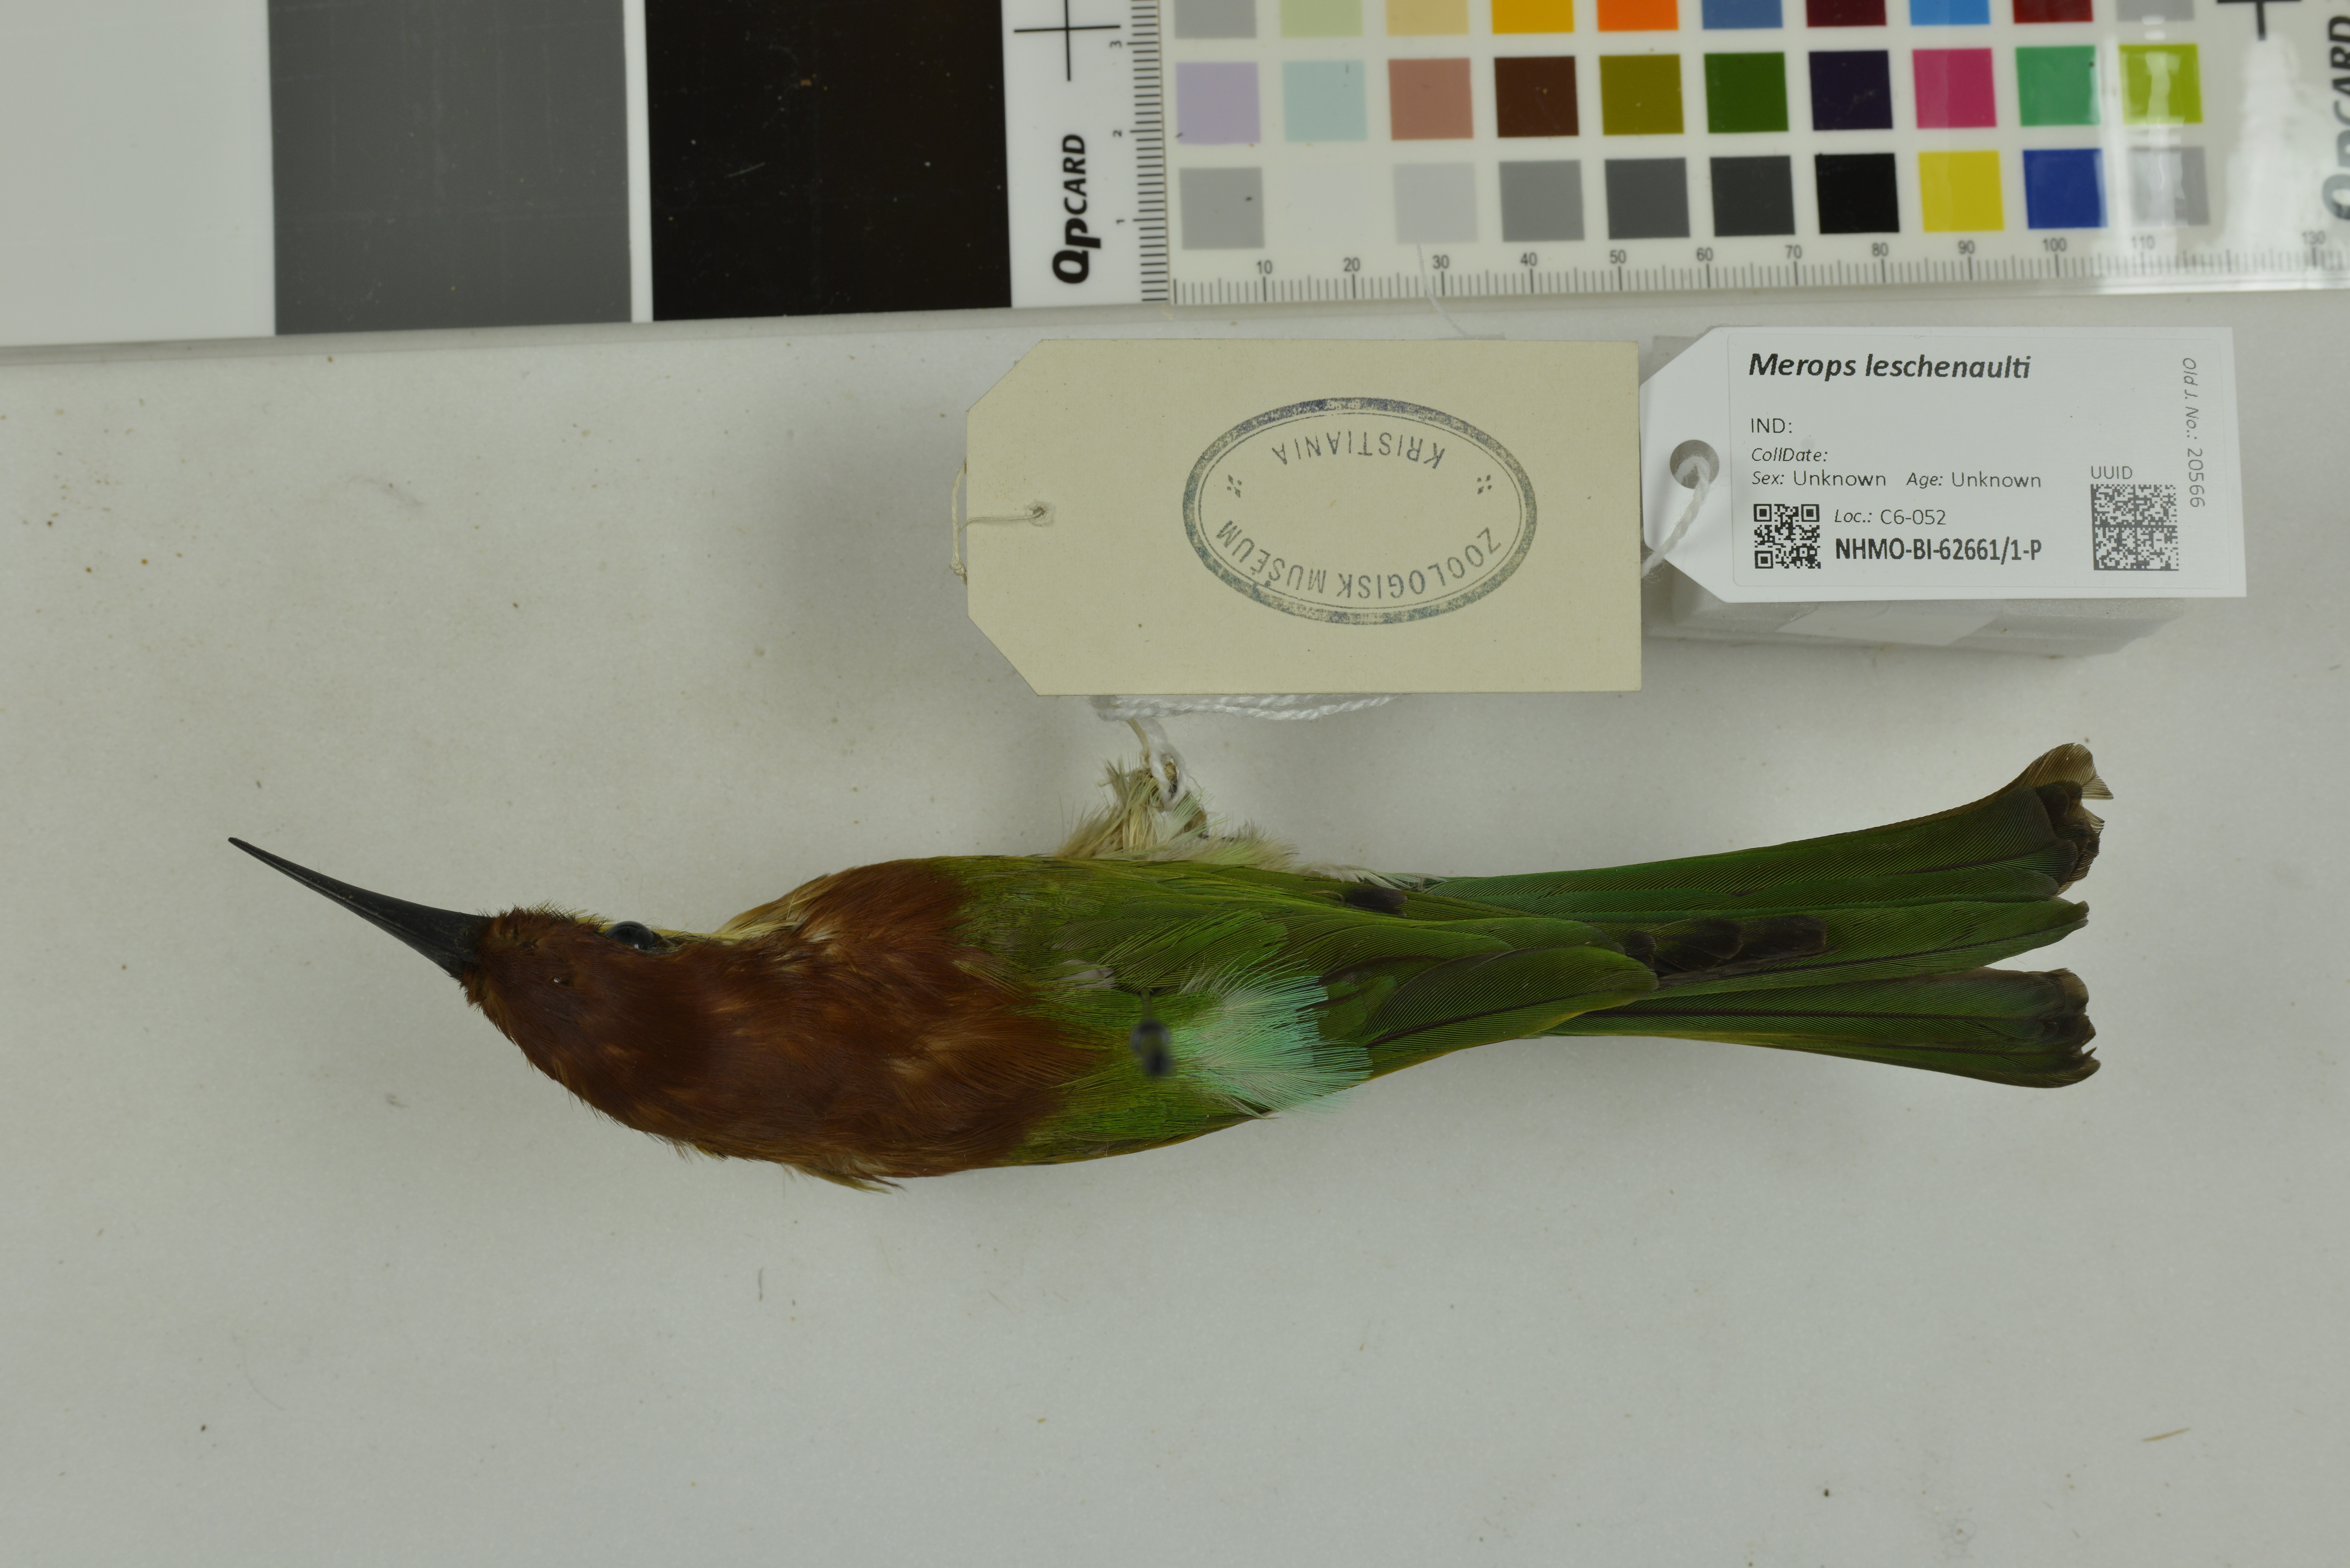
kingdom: Animalia
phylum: Chordata
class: Aves
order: Coraciiformes
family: Meropidae
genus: Merops
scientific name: Merops leschenaulti
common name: Chestnut-headed bee-eater
